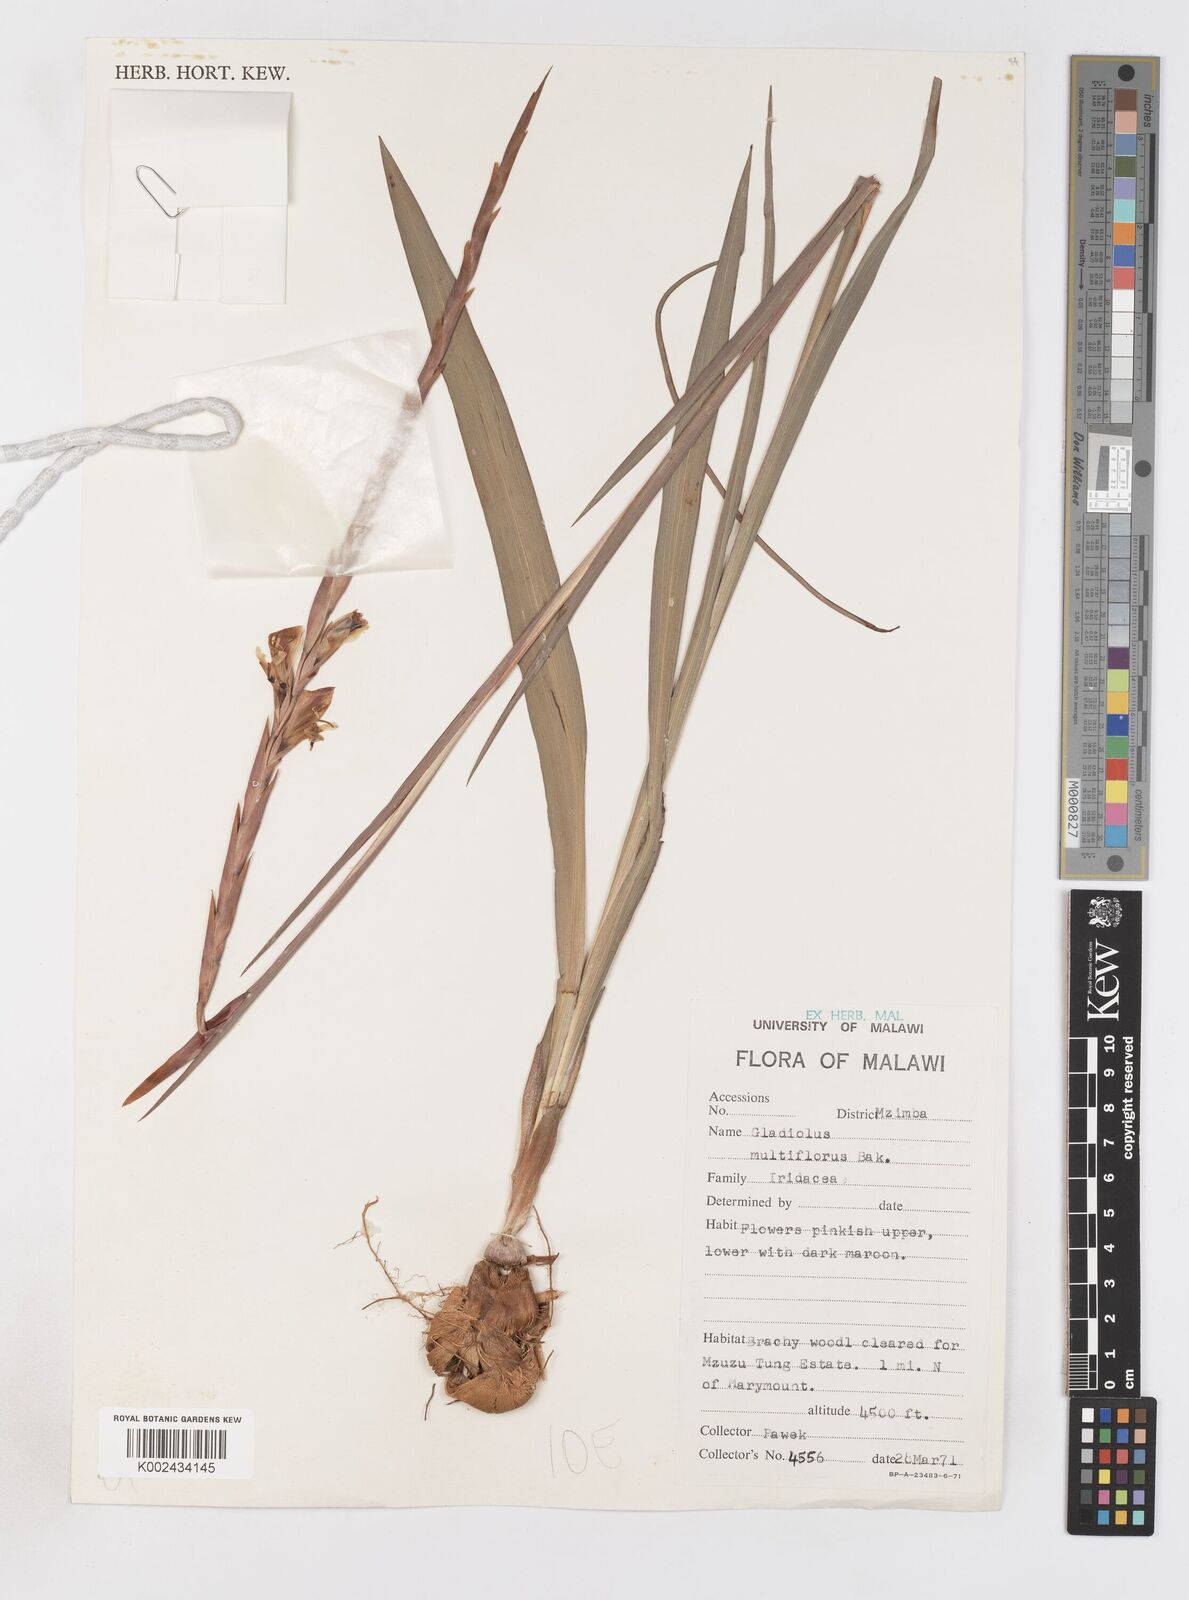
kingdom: Plantae
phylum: Tracheophyta
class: Liliopsida
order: Asparagales
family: Iridaceae
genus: Gladiolus
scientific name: Gladiolus gregarius
